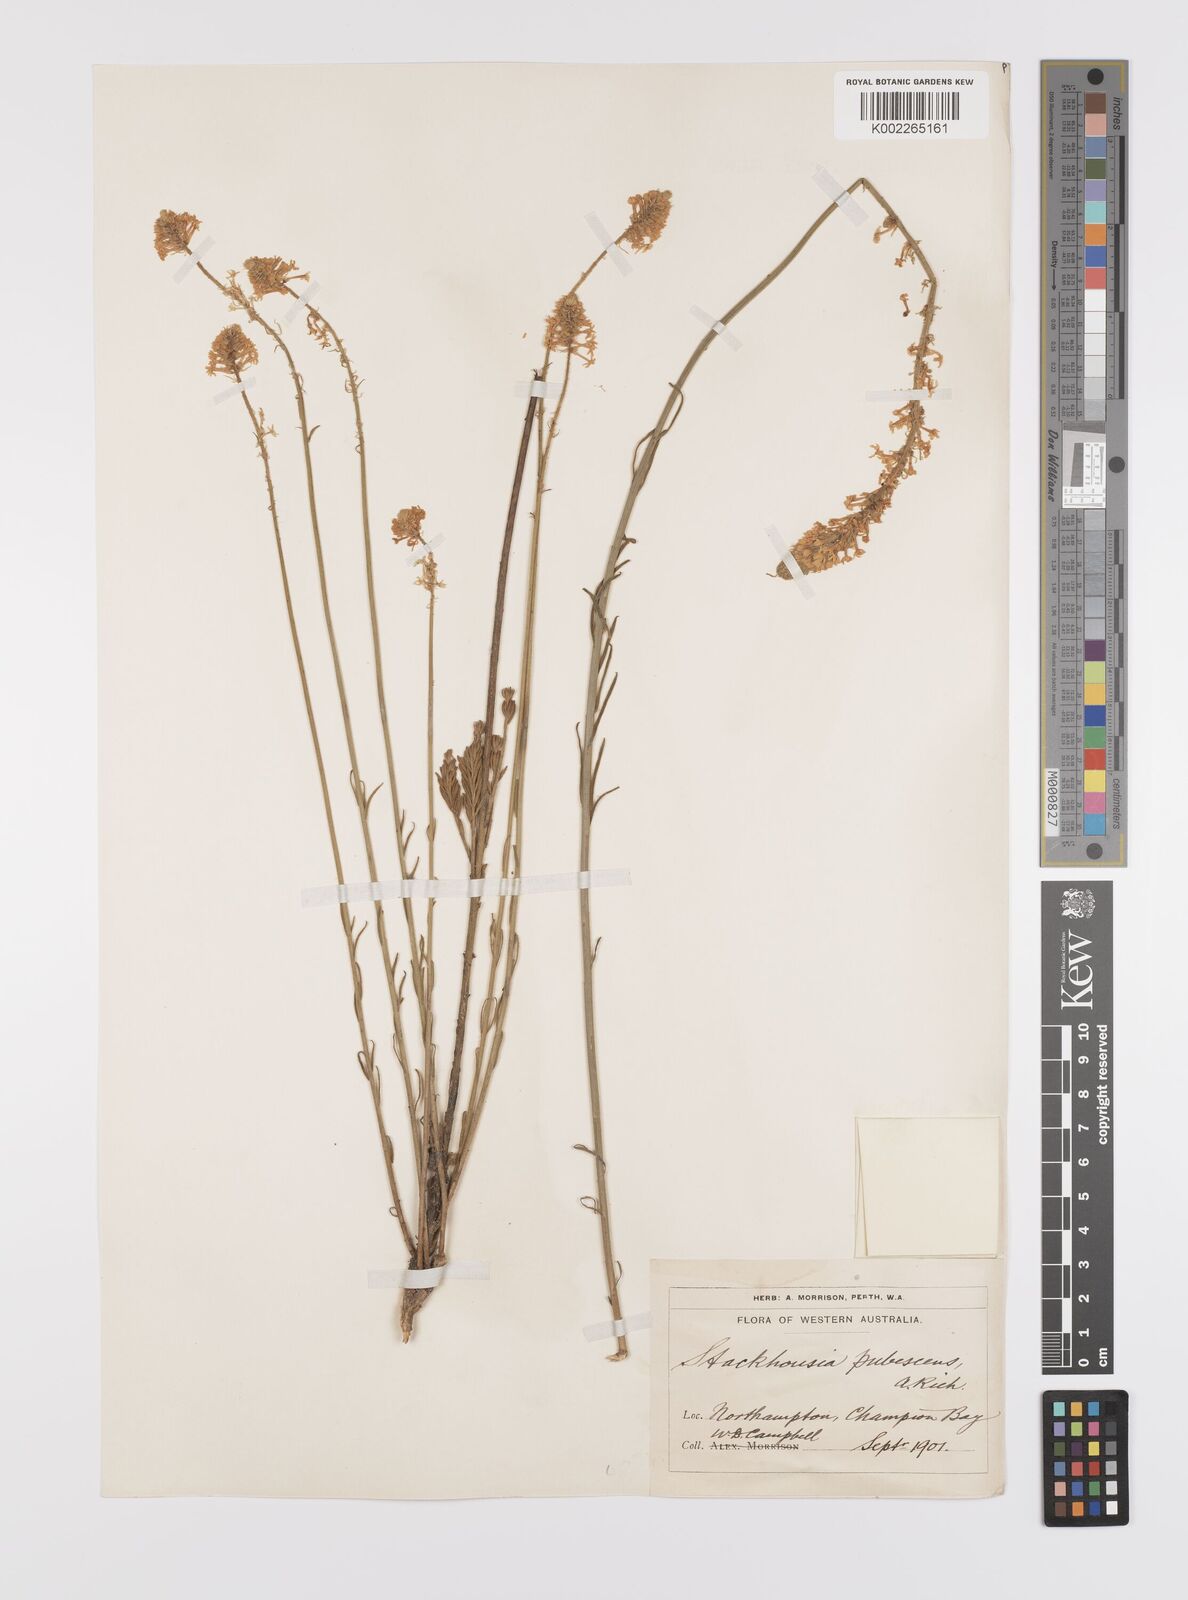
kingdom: Plantae
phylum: Tracheophyta
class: Magnoliopsida
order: Celastrales
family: Celastraceae
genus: Stackhousia
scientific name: Stackhousia monogyna
